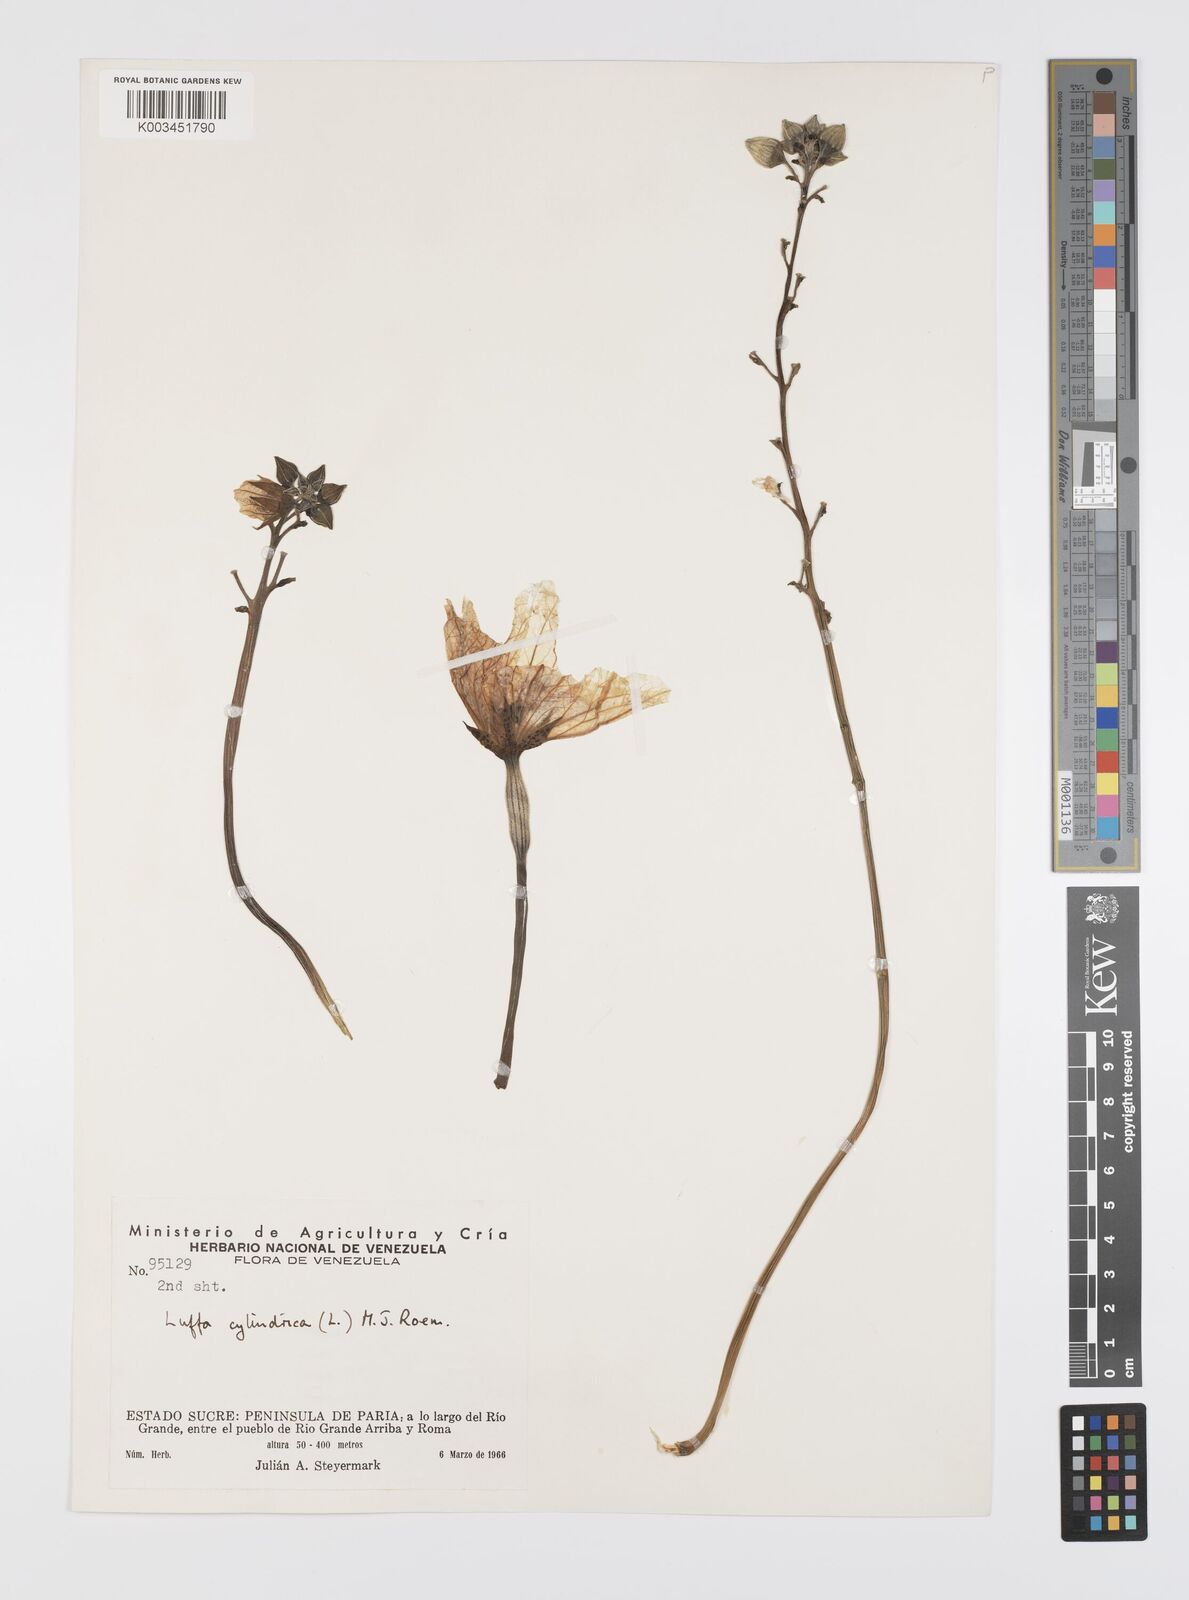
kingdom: Plantae
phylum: Tracheophyta
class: Magnoliopsida
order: Cucurbitales
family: Cucurbitaceae
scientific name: Cucurbitaceae
